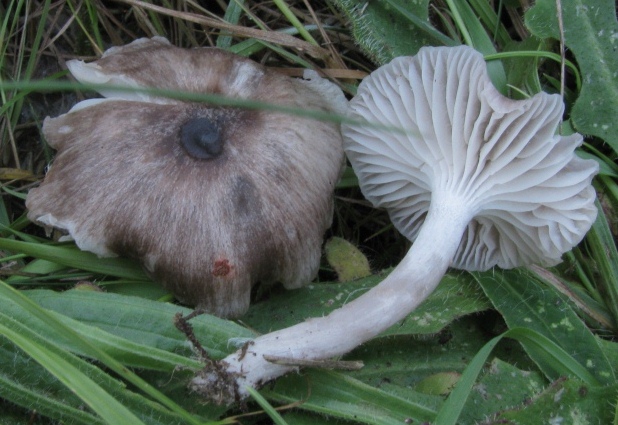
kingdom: Fungi
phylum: Basidiomycota
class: Agaricomycetes
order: Agaricales
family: Hygrophoraceae
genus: Hygrocybe
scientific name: Hygrocybe
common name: vokshat
